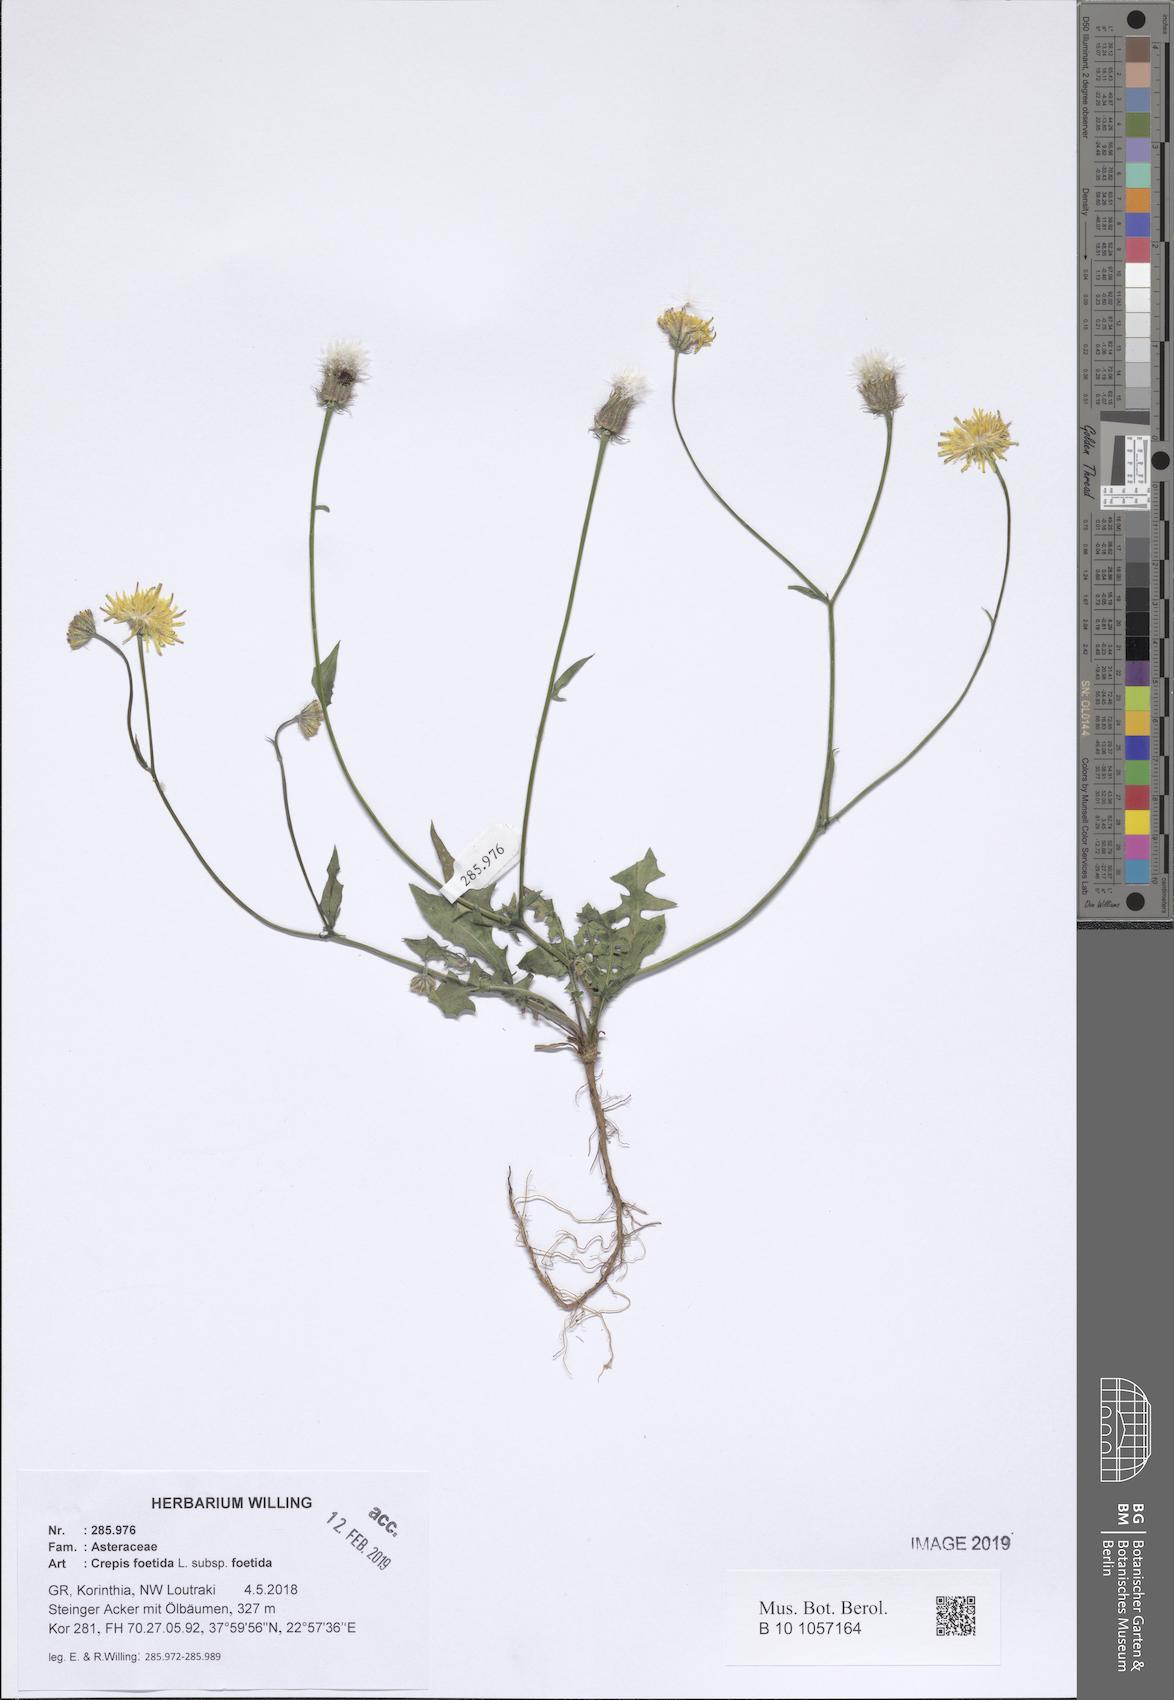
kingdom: Plantae
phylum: Tracheophyta
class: Magnoliopsida
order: Asterales
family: Asteraceae
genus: Crepis
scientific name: Crepis foetida
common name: Stinking hawk's-beard
